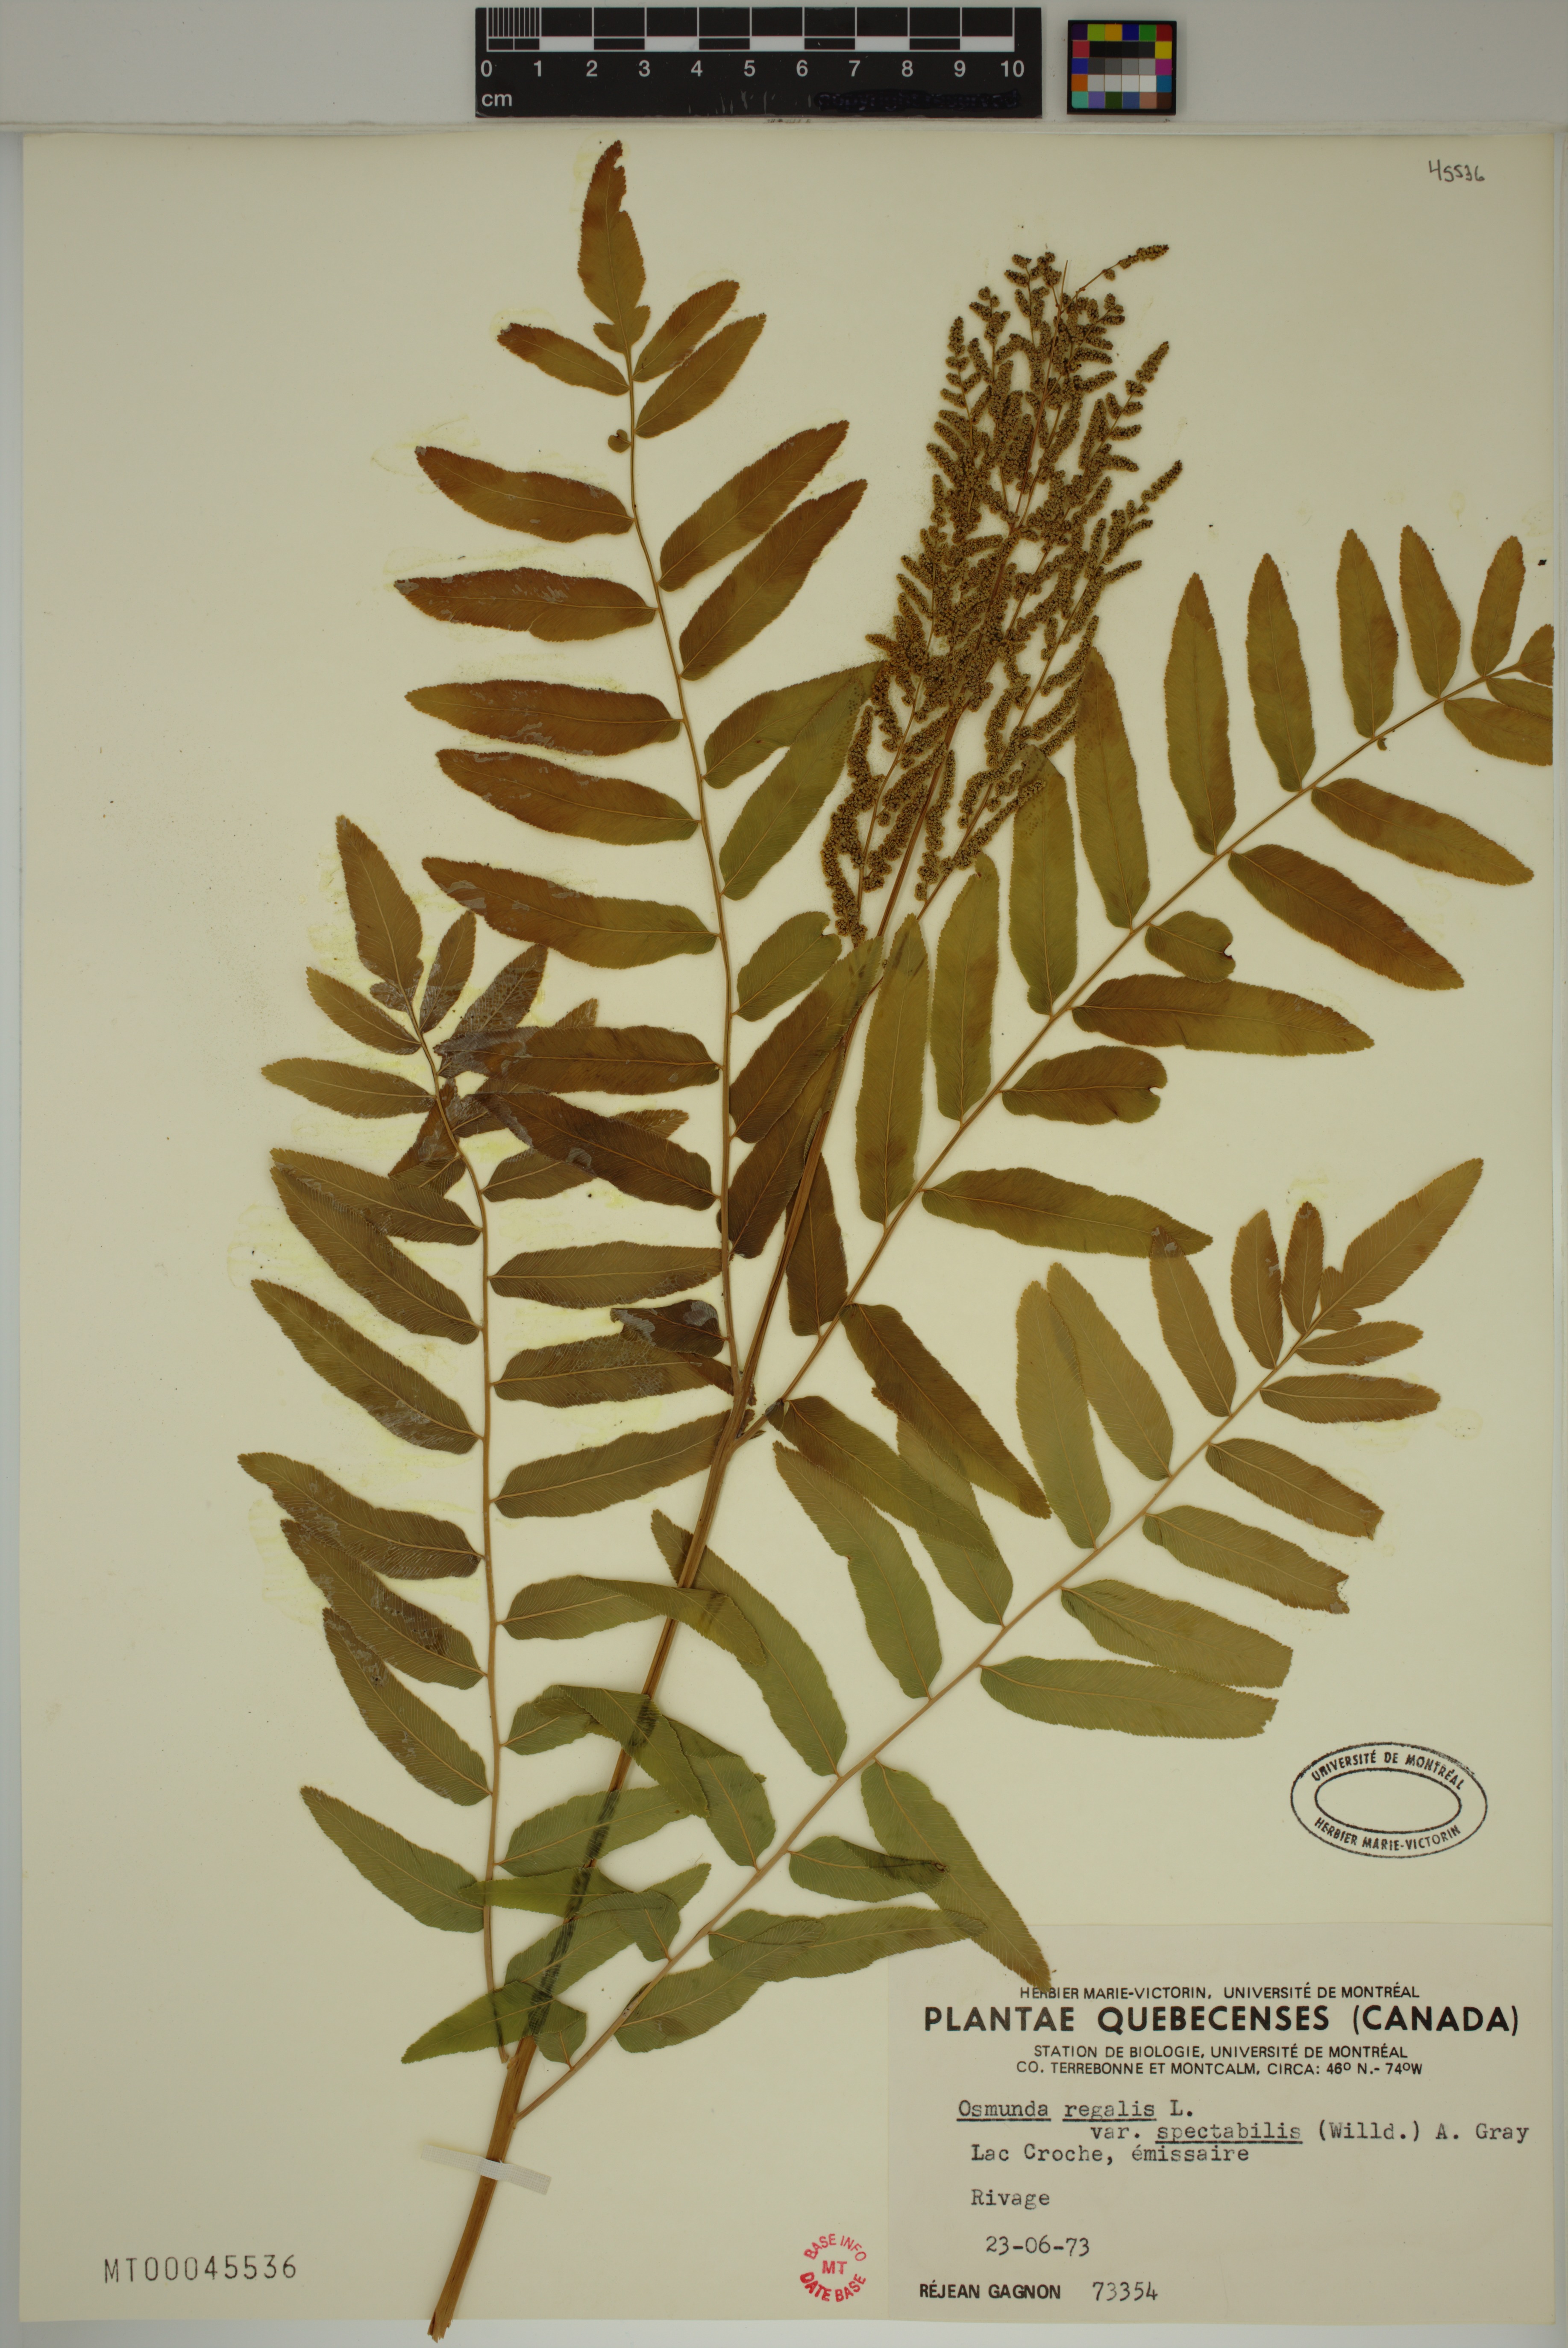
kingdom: Plantae
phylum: Tracheophyta
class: Polypodiopsida
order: Osmundales
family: Osmundaceae
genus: Osmunda
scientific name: Osmunda spectabilis
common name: American royal fern
